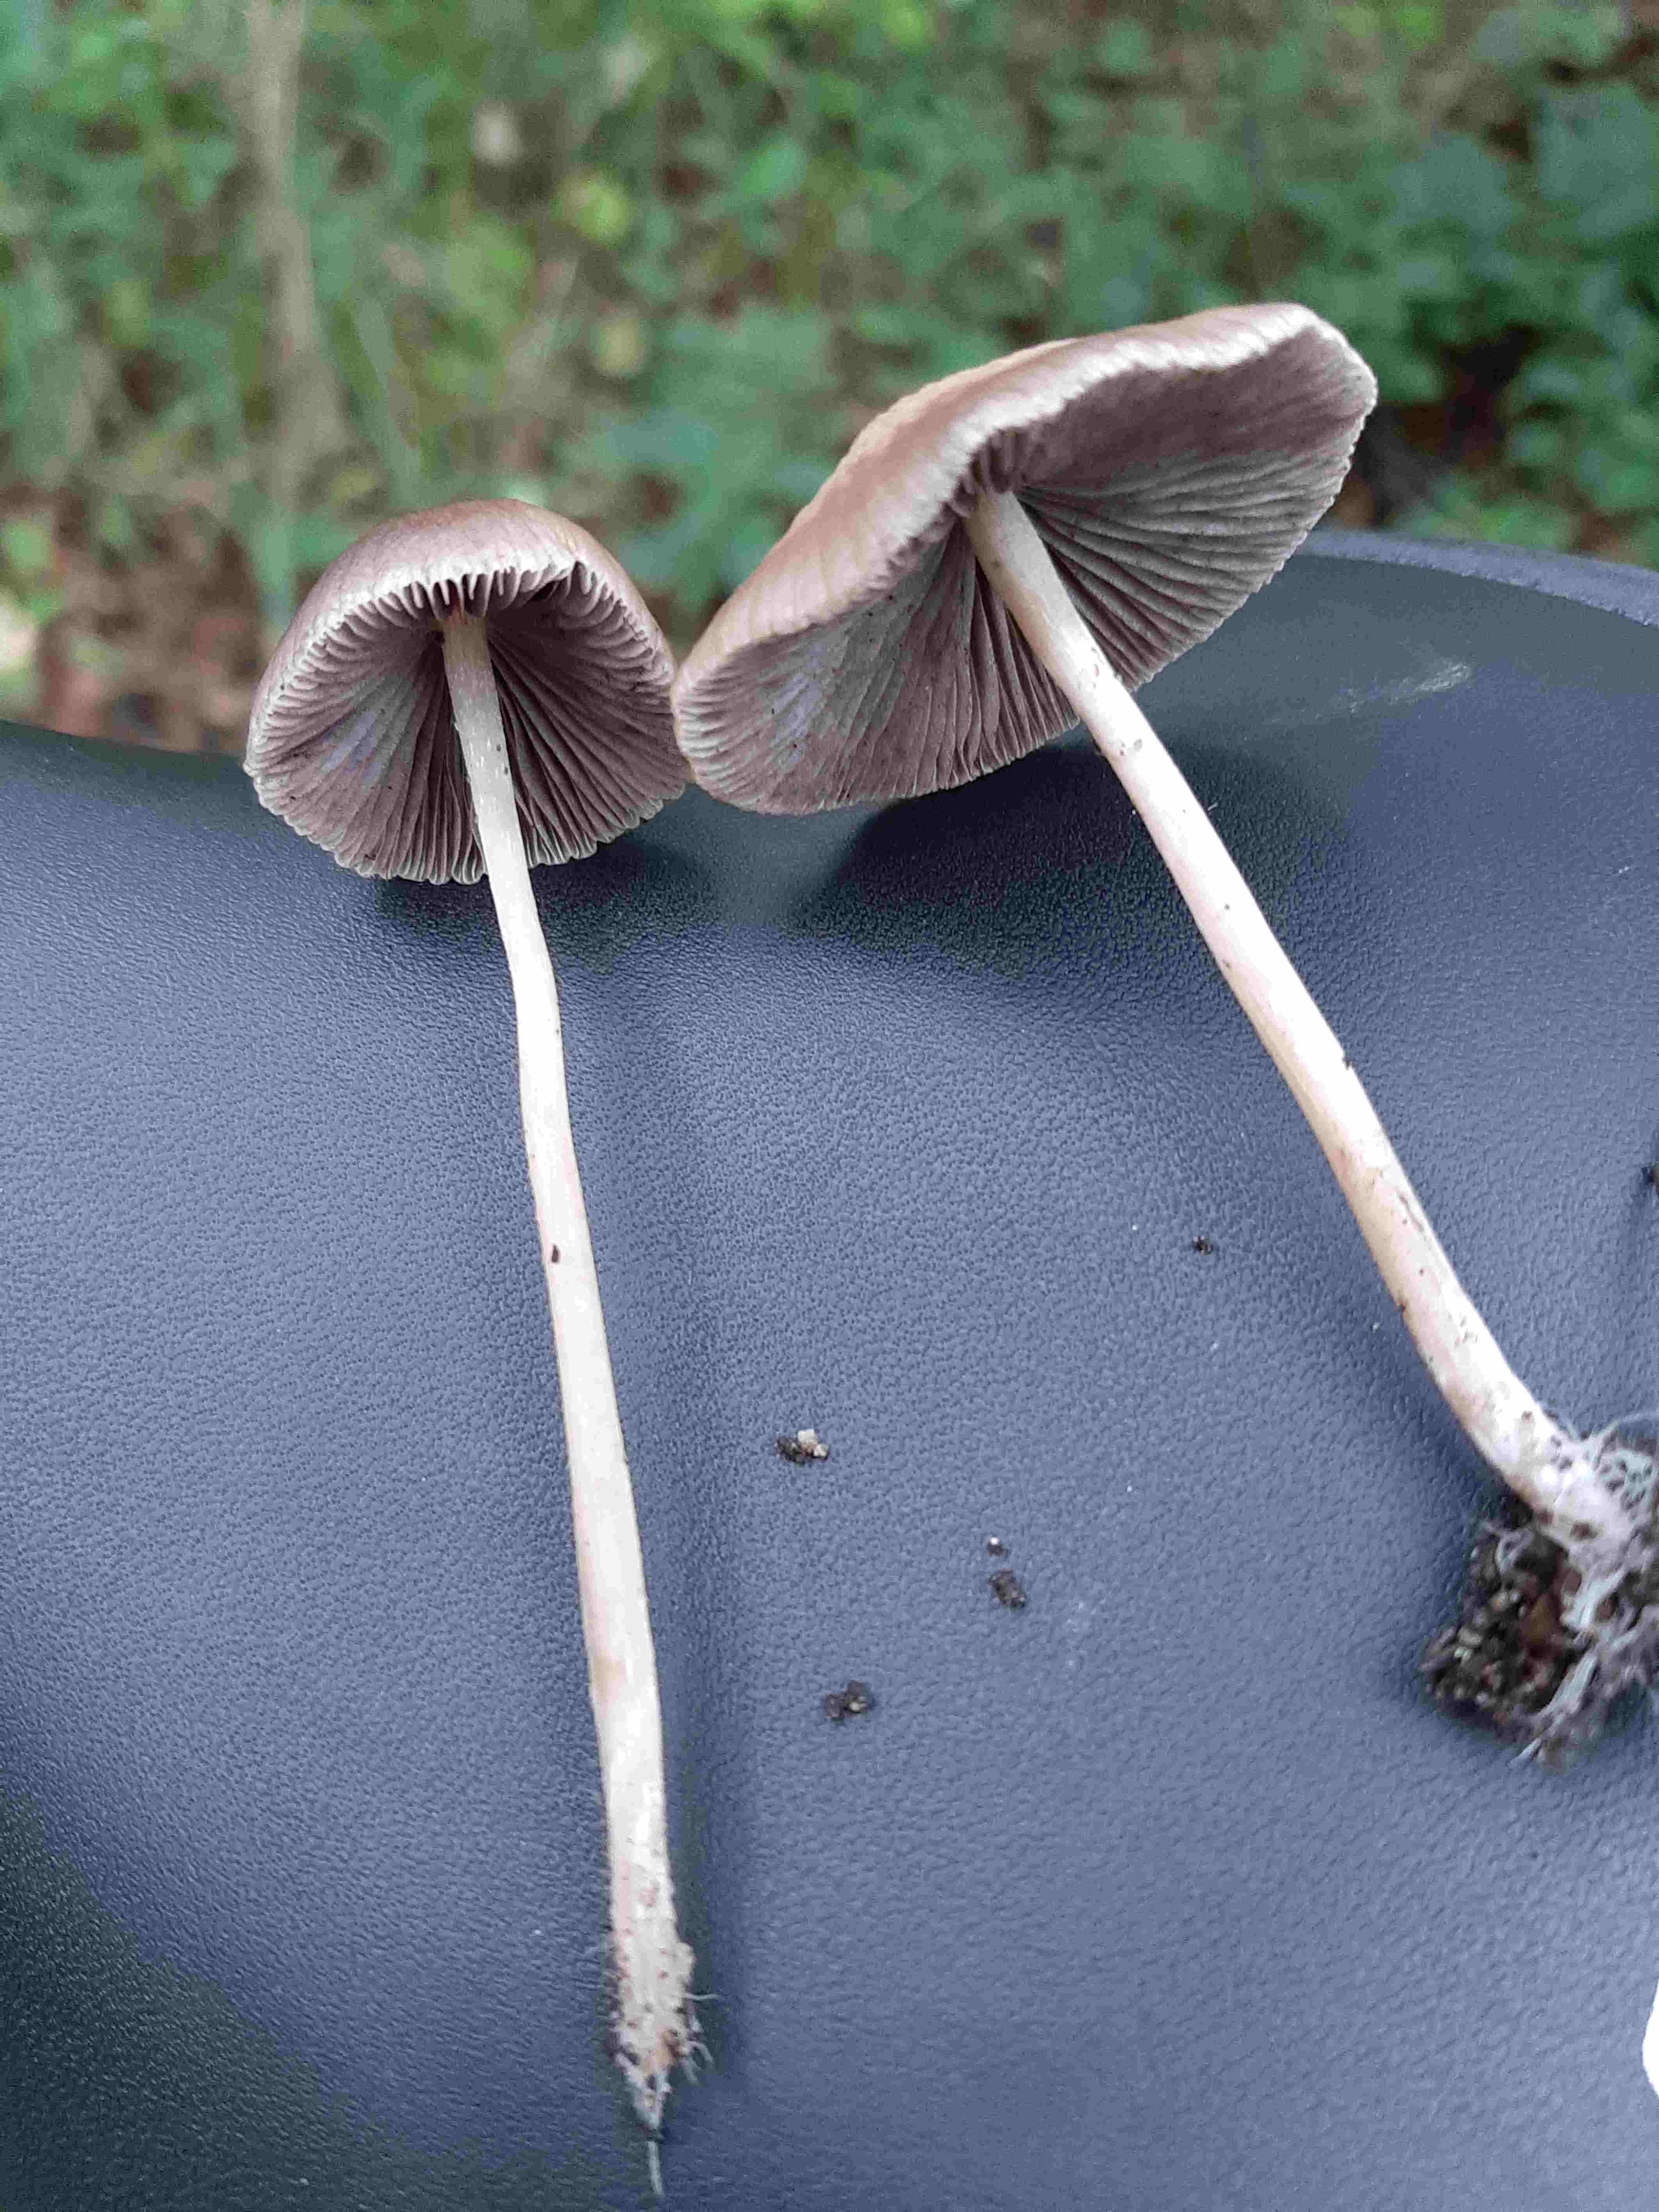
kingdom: Fungi
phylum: Basidiomycota
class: Agaricomycetes
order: Agaricales
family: Psathyrellaceae
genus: Psathyrella
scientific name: Psathyrella
